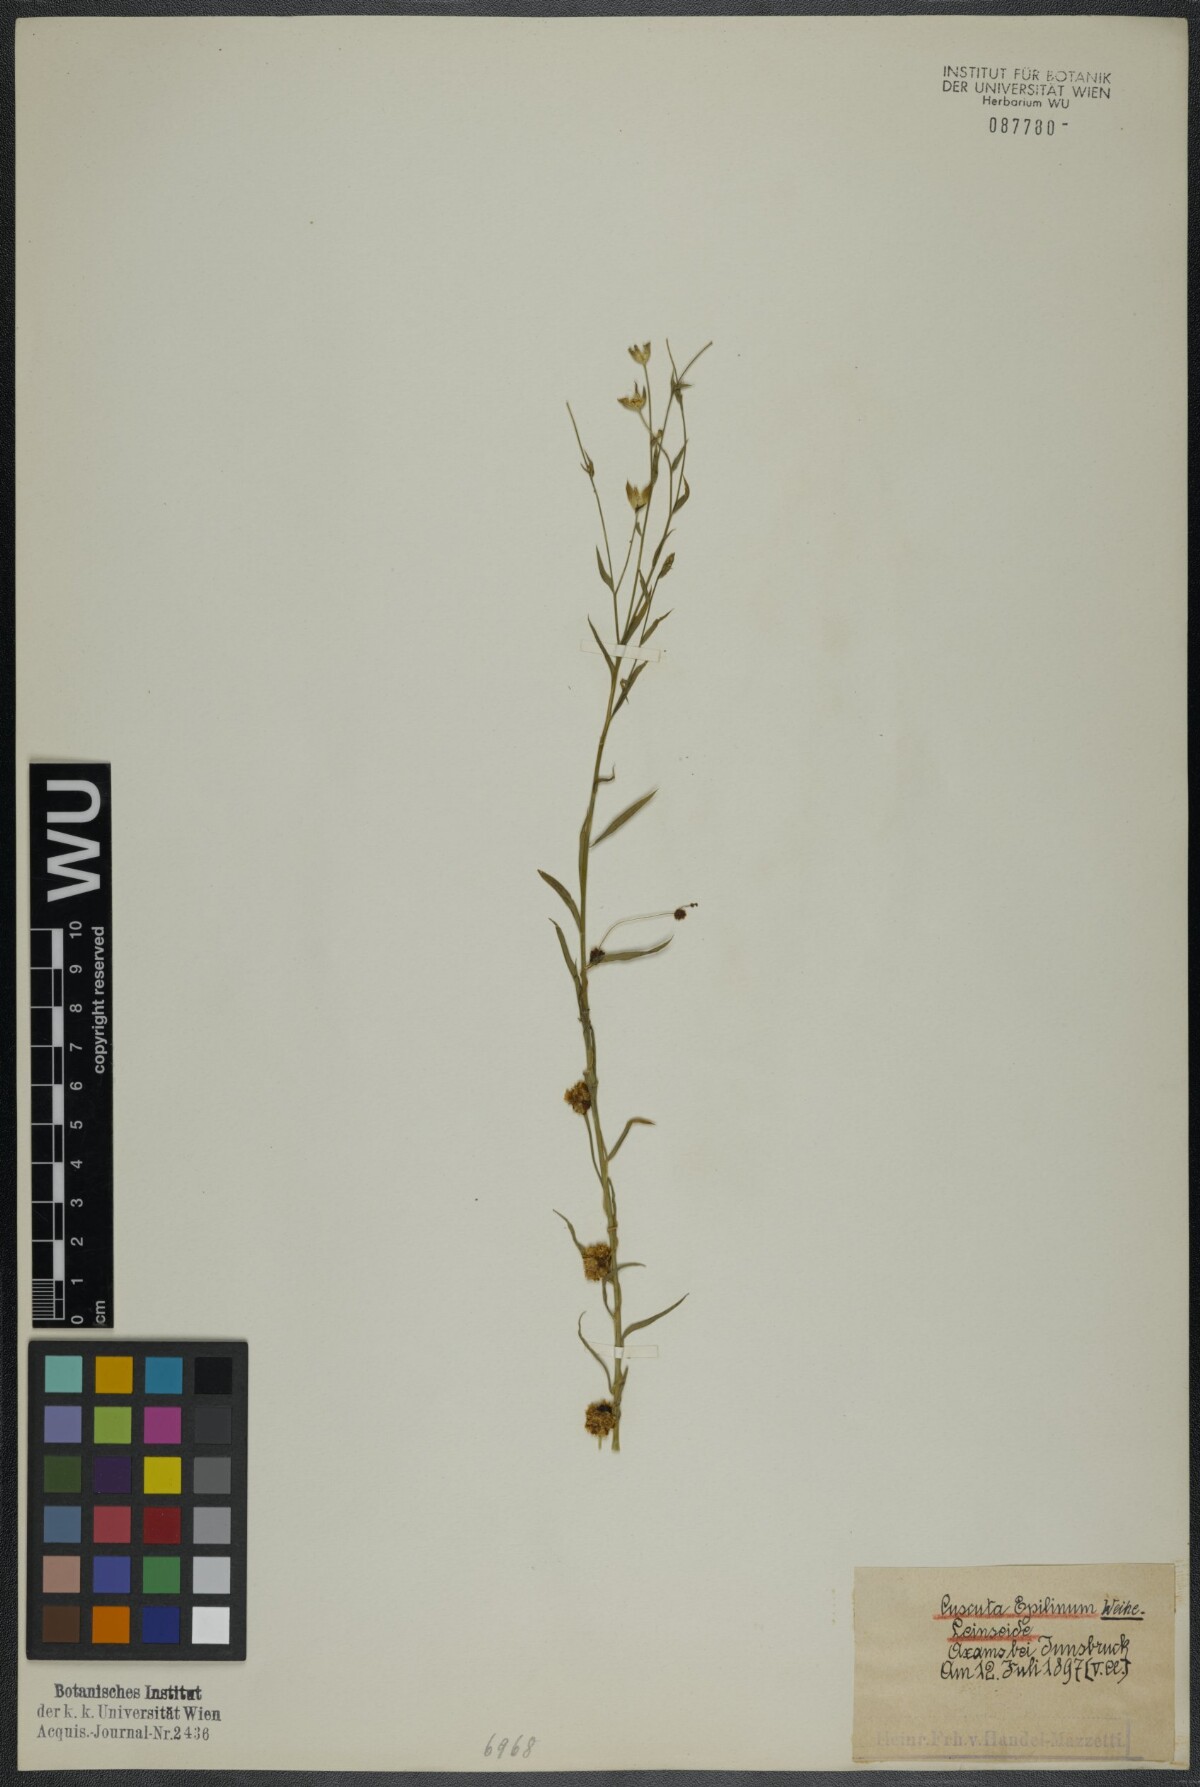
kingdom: Plantae
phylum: Tracheophyta
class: Magnoliopsida
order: Solanales
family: Convolvulaceae
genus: Cuscuta
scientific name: Cuscuta epilinum
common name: Flax dodder
